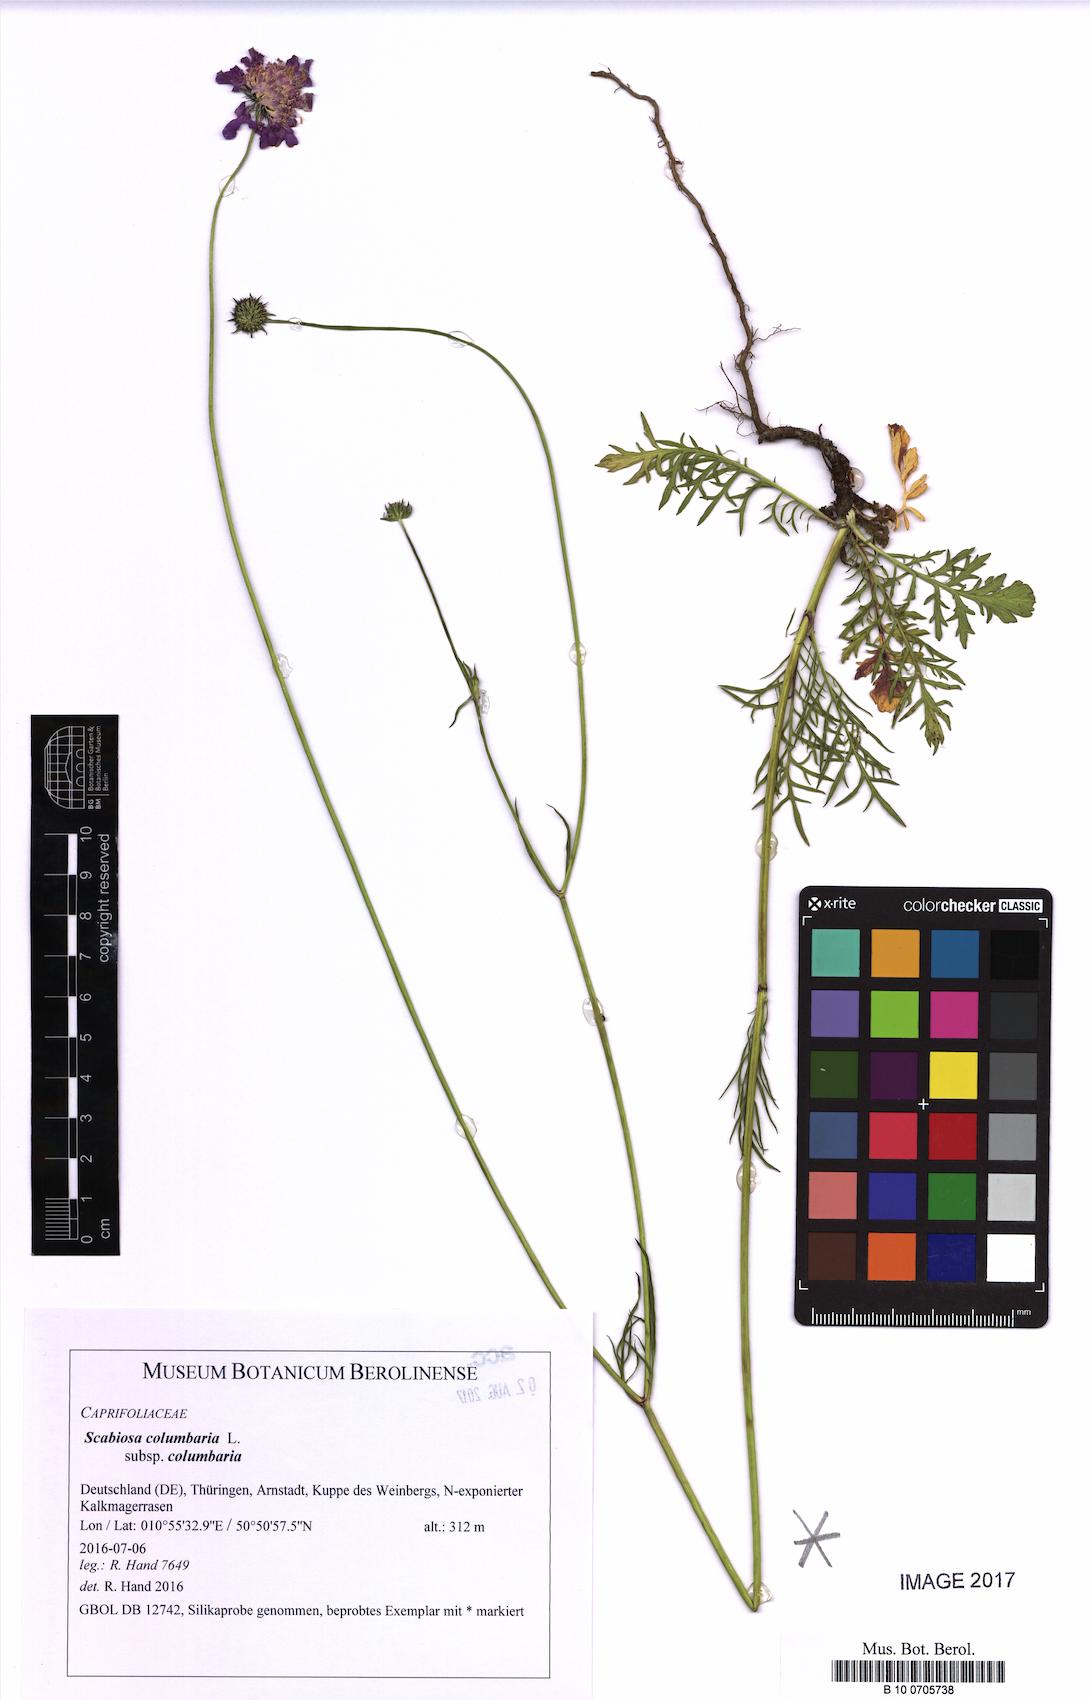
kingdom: Plantae
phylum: Tracheophyta
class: Magnoliopsida
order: Dipsacales
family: Caprifoliaceae
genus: Scabiosa
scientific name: Scabiosa columbaria
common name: Small scabious
